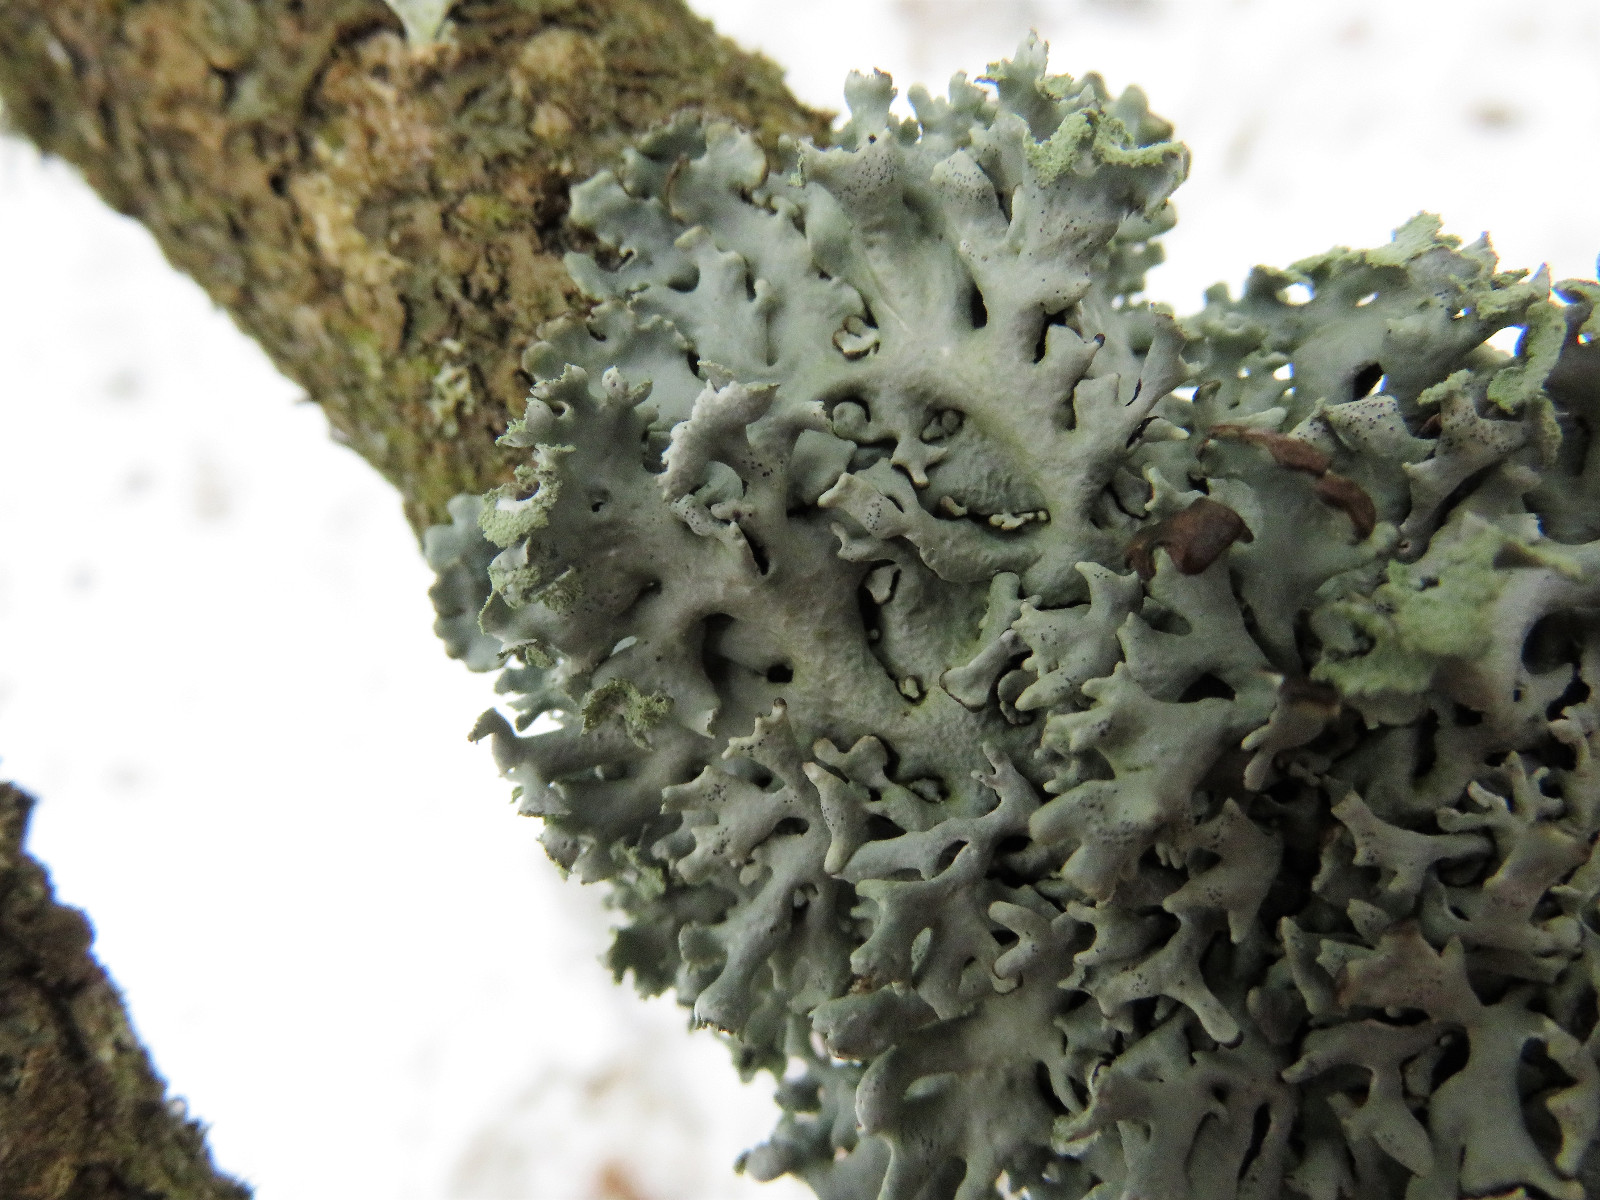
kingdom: Fungi
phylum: Ascomycota
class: Lecanoromycetes
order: Lecanorales
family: Parmeliaceae
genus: Hypogymnia
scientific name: Hypogymnia physodes
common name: almindelig kvistlav
